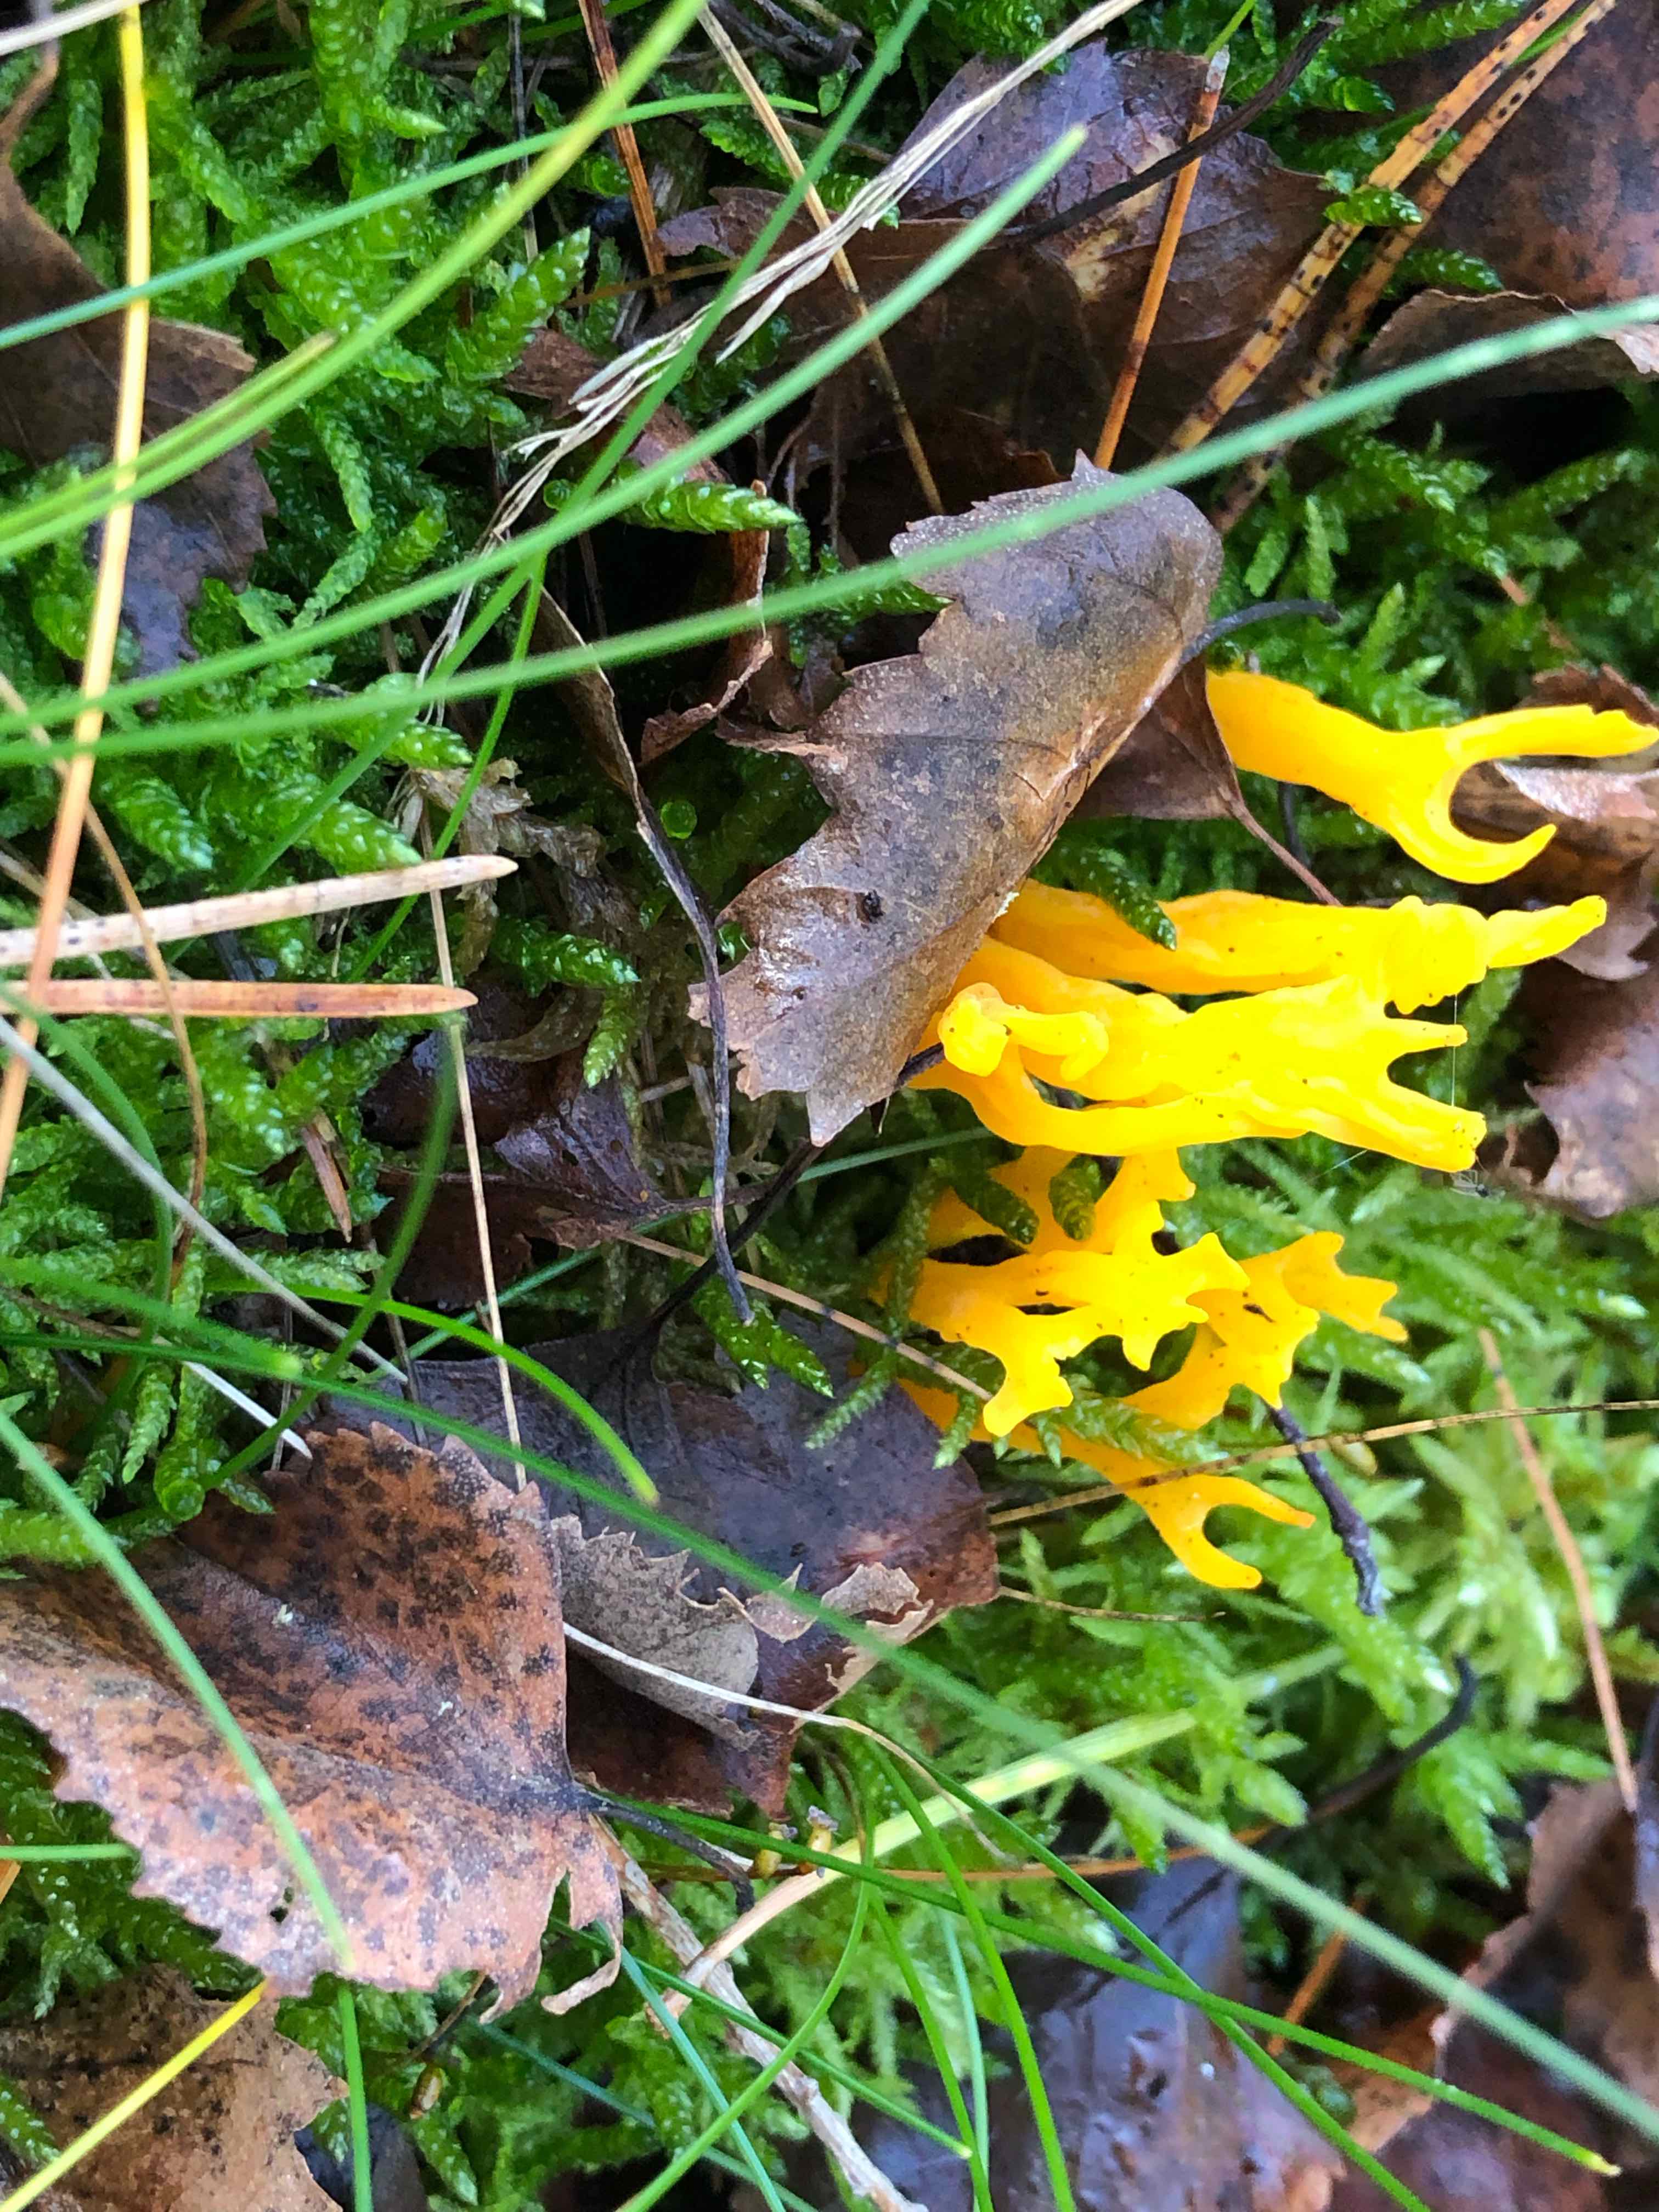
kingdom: Fungi
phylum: Basidiomycota
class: Dacrymycetes
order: Dacrymycetales
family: Dacrymycetaceae
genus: Calocera
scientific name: Calocera viscosa
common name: almindelig guldgaffel
